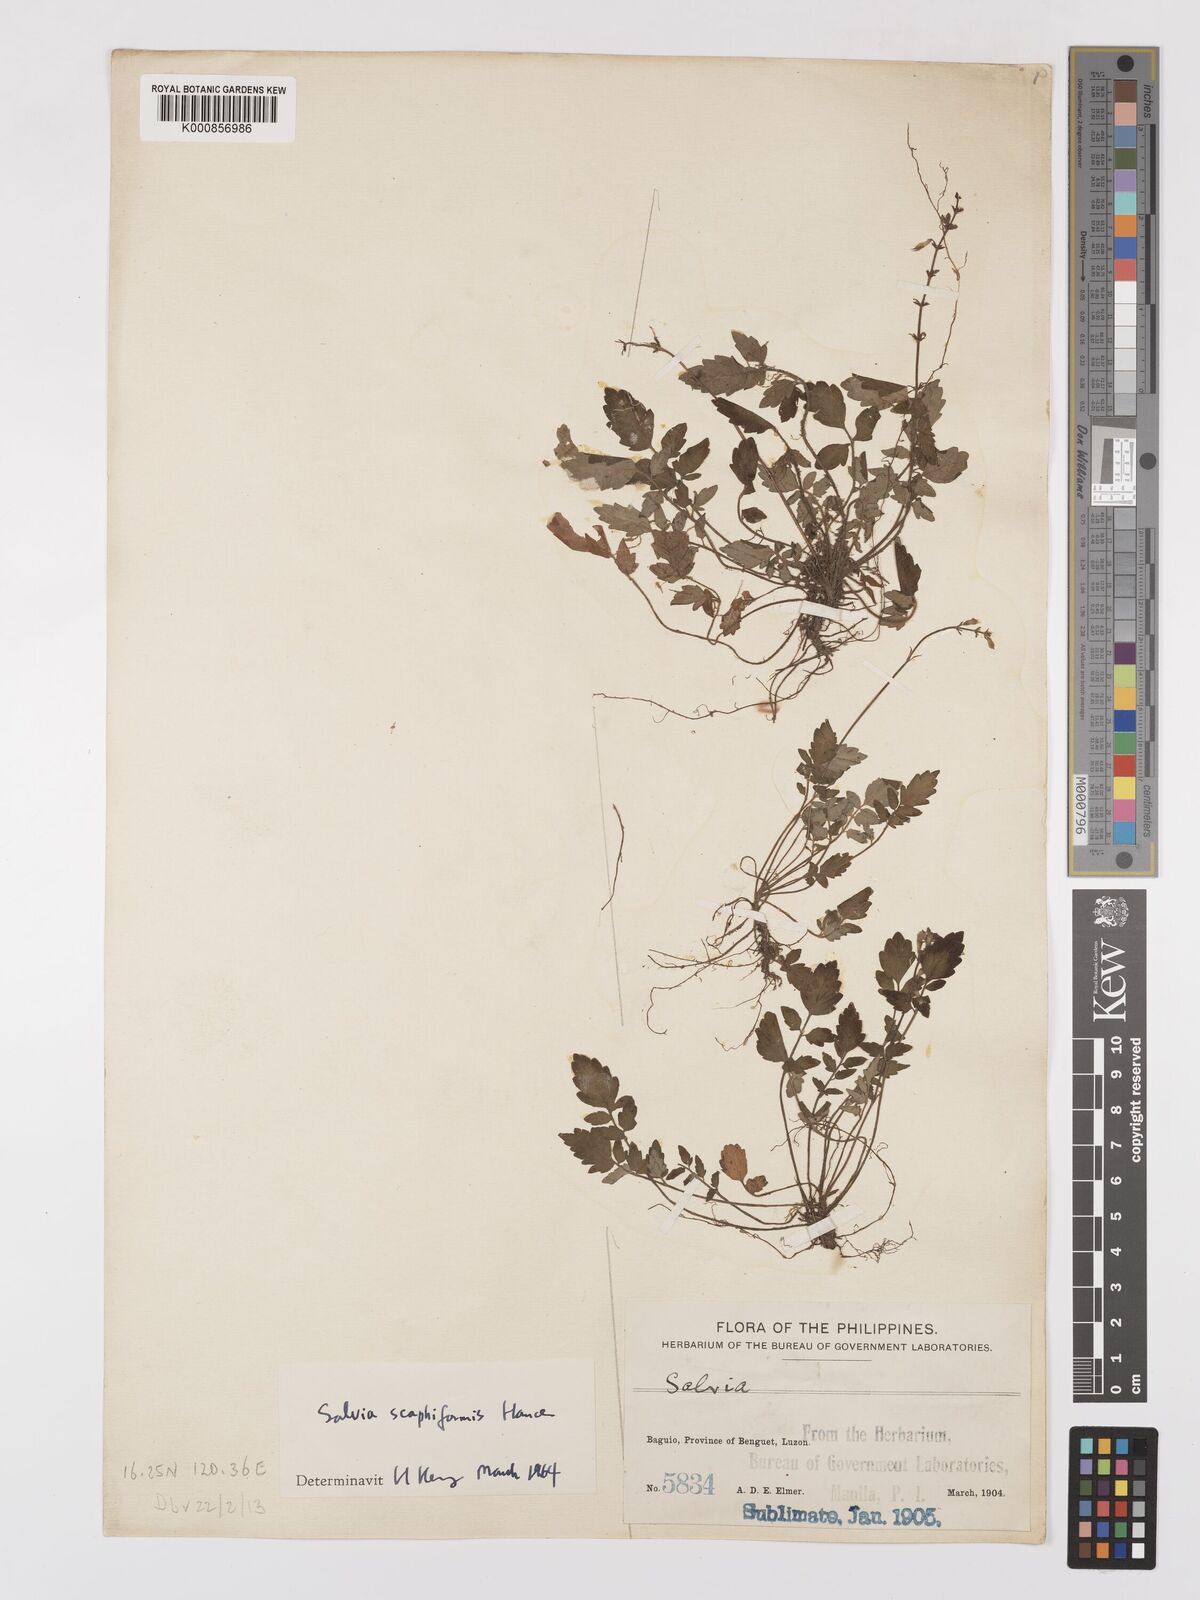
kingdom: Plantae
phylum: Tracheophyta
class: Magnoliopsida
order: Lamiales
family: Lamiaceae
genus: Salvia
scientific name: Salvia scapiformis
